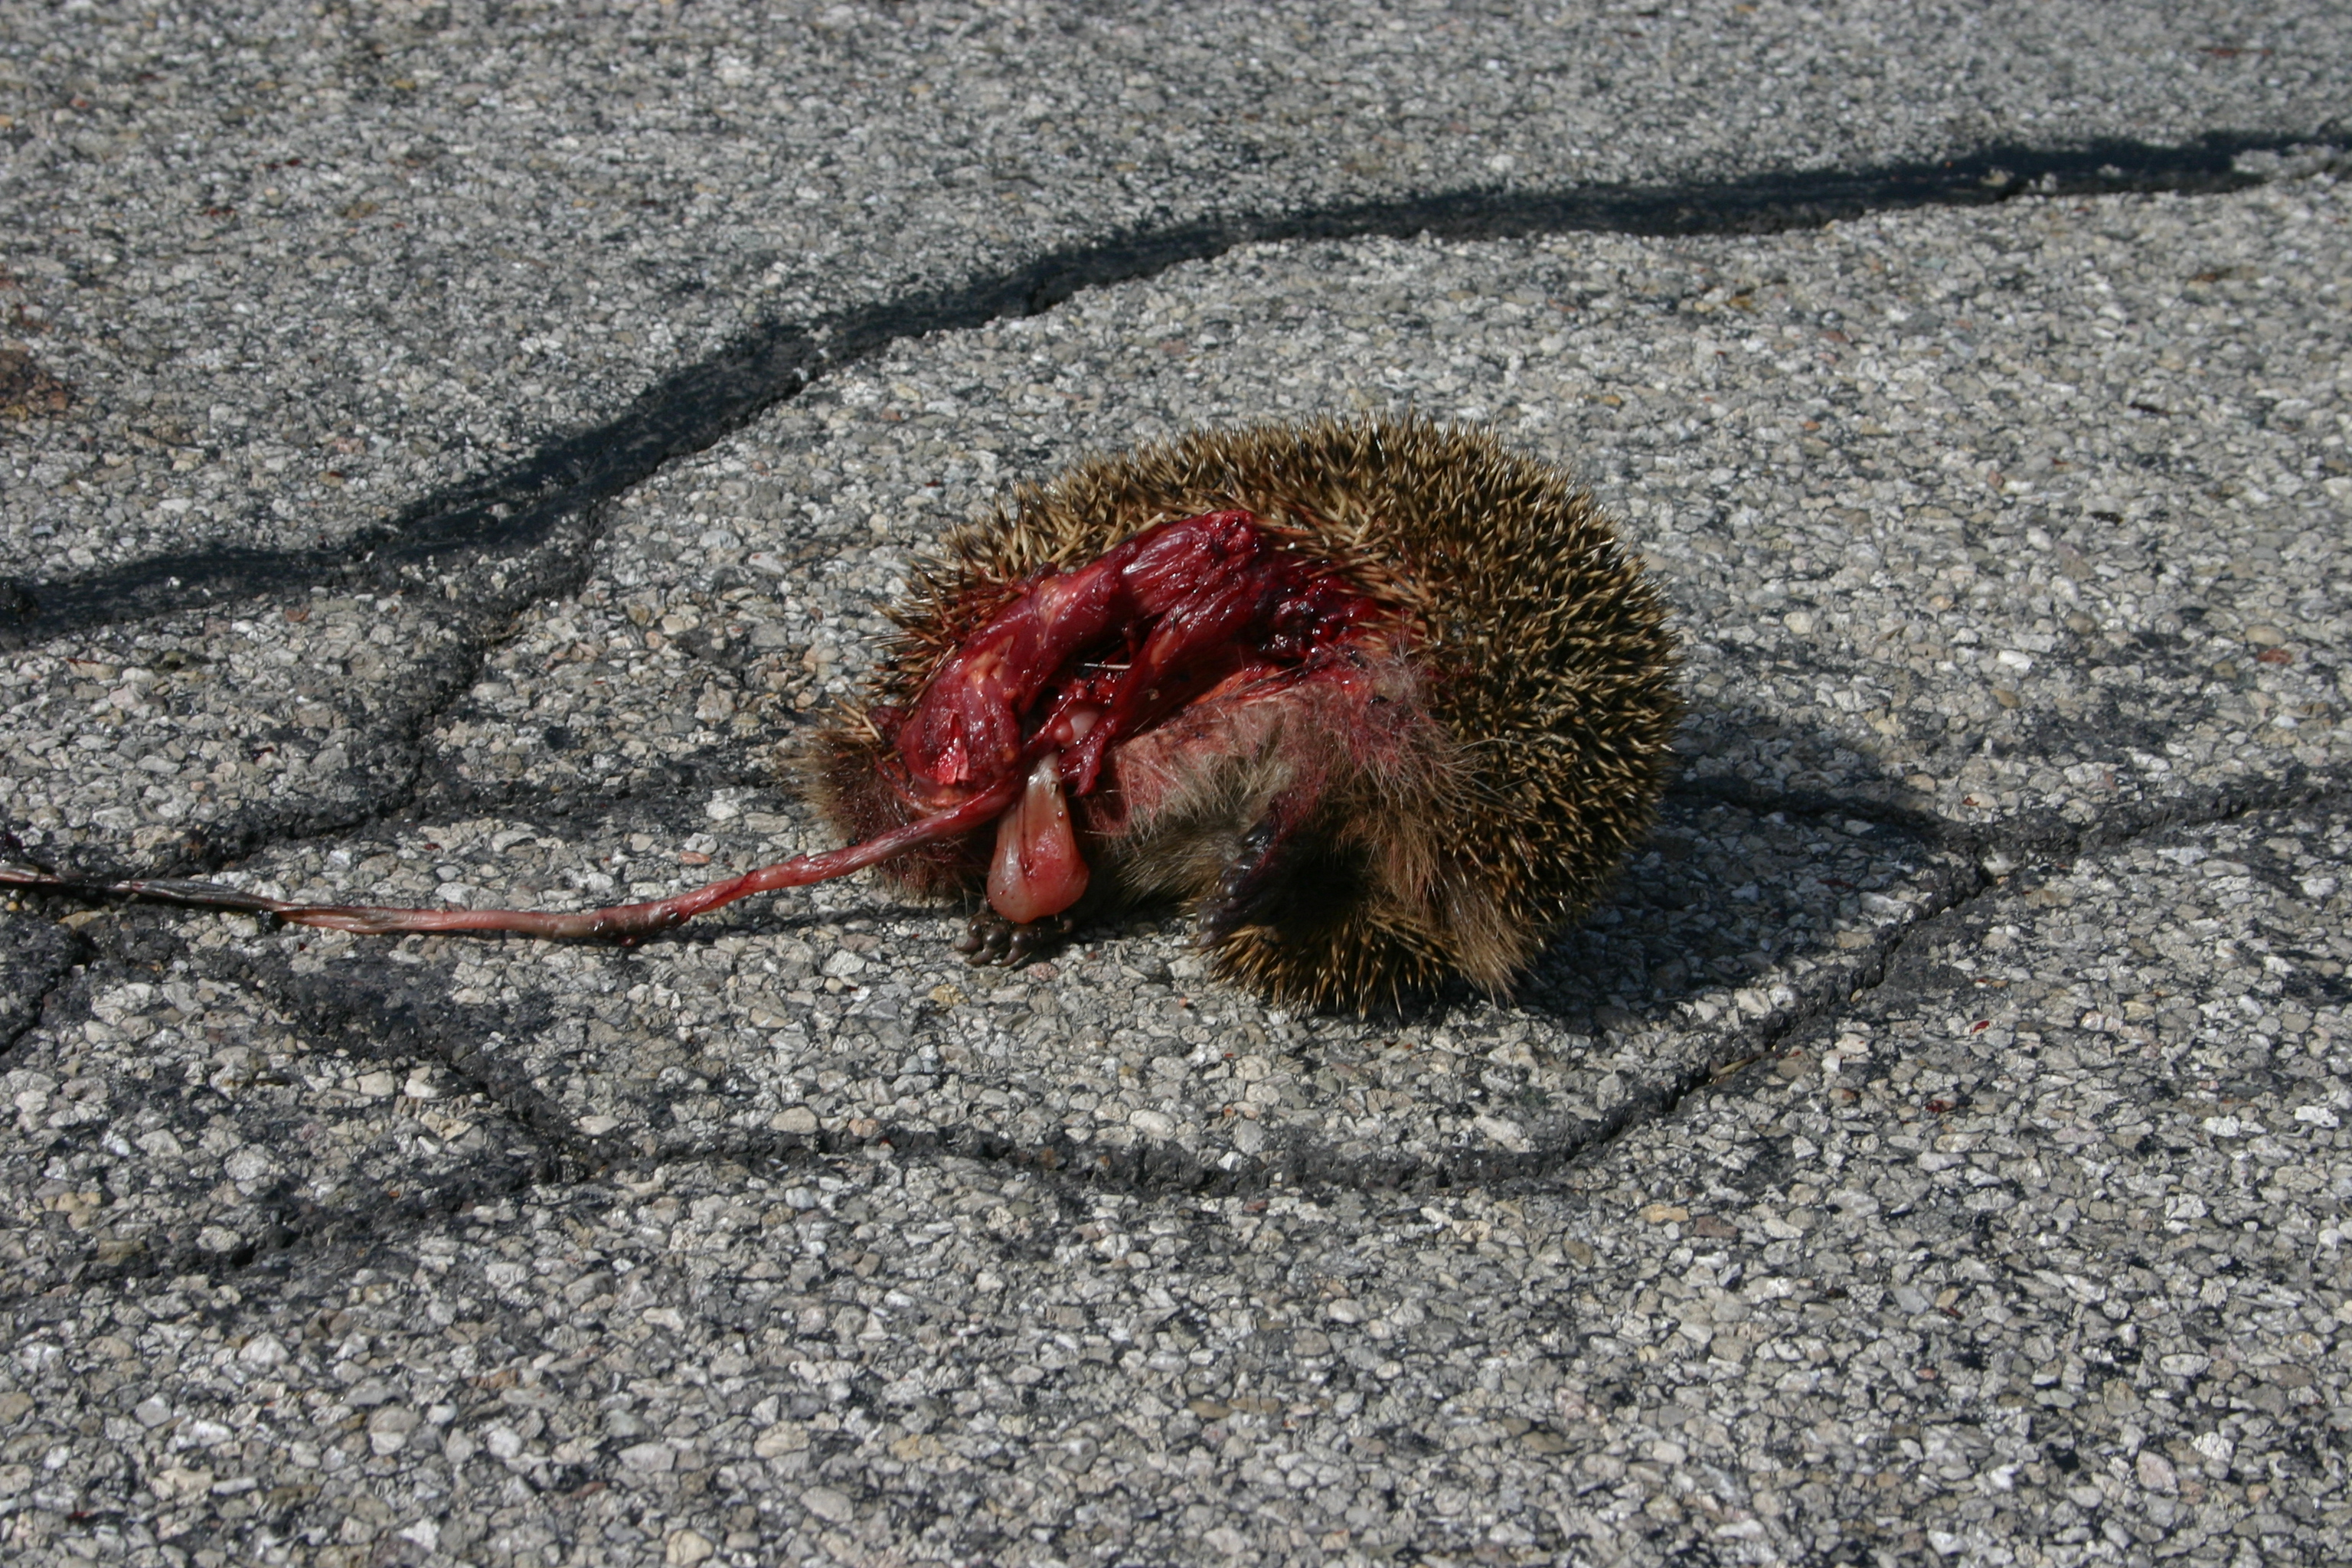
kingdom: Animalia
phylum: Chordata
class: Mammalia
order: Erinaceomorpha
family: Erinaceidae
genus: Erinaceus
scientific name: Erinaceus
